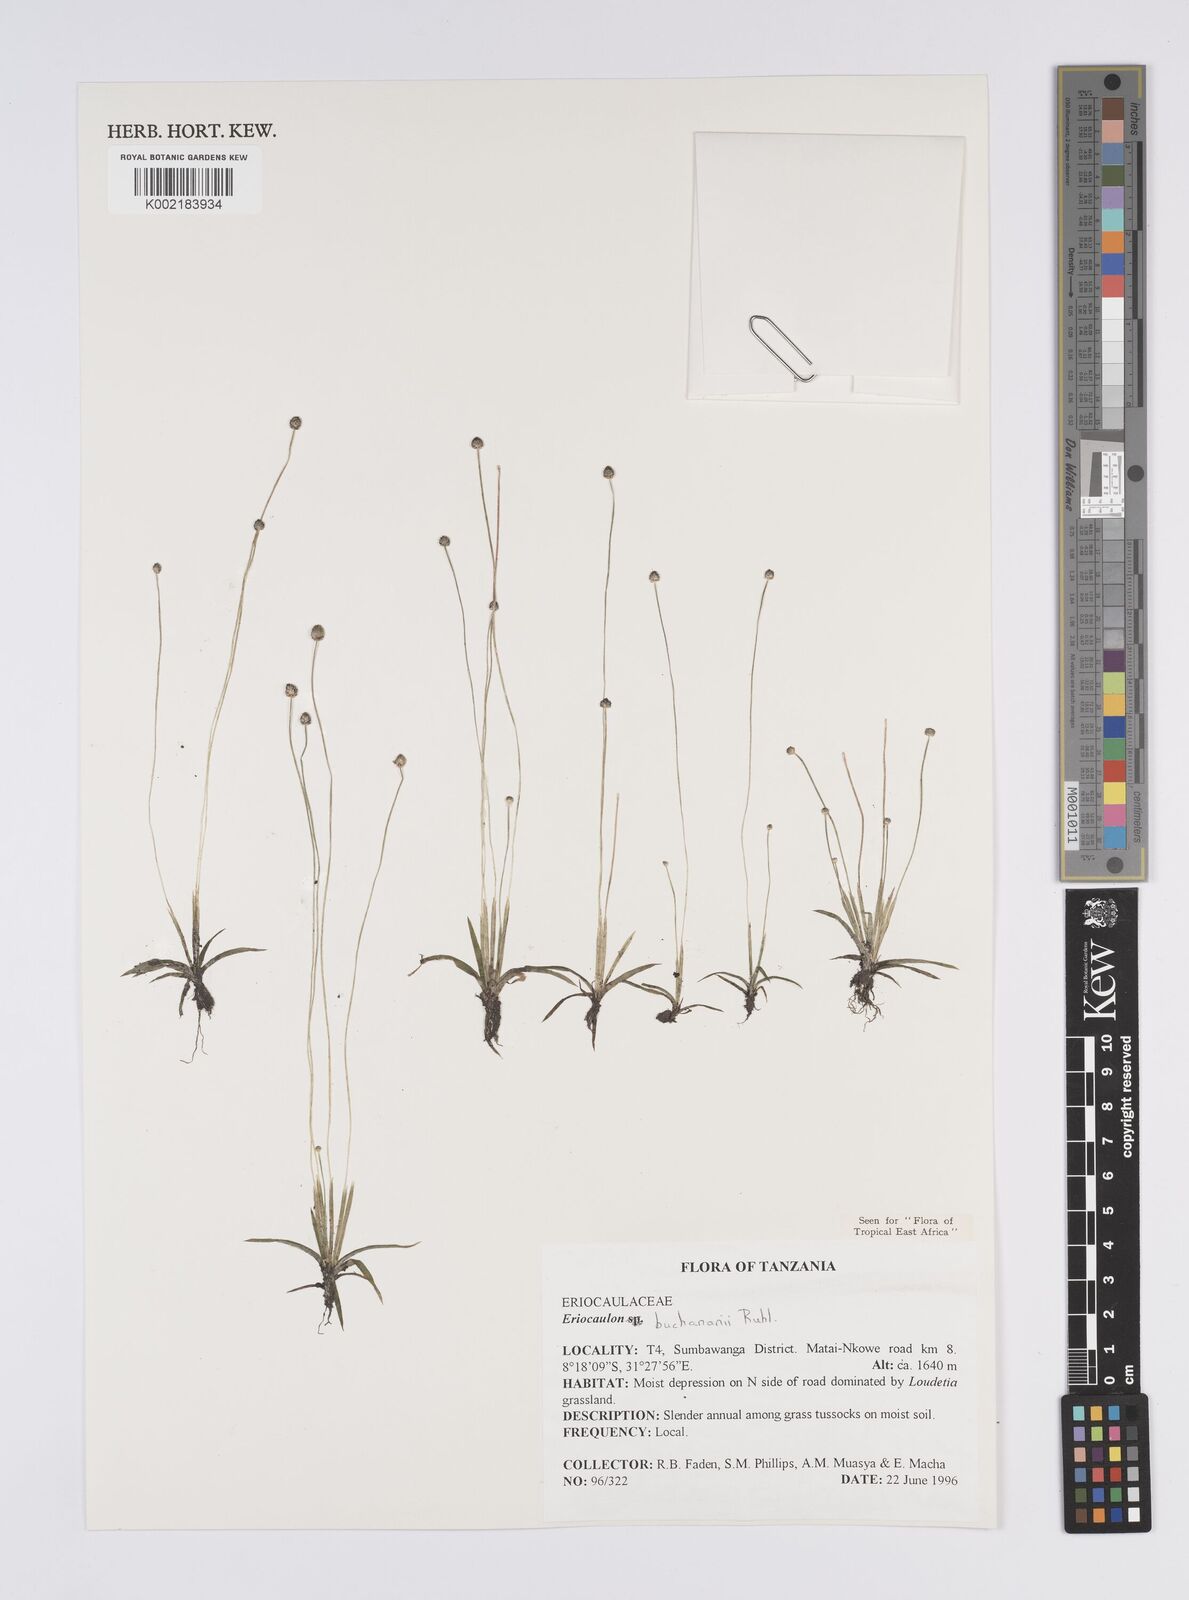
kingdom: Plantae
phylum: Tracheophyta
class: Liliopsida
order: Poales
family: Eriocaulaceae
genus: Eriocaulon
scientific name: Eriocaulon buchananii
